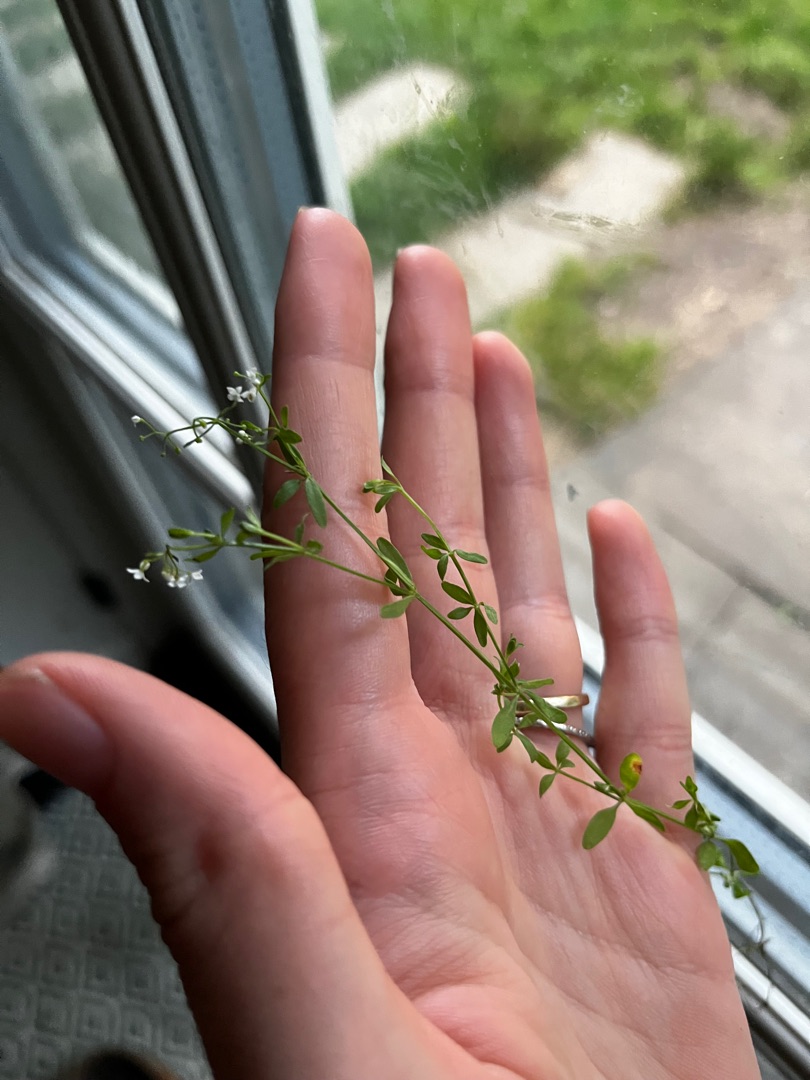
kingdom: Plantae
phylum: Tracheophyta
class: Magnoliopsida
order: Gentianales
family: Rubiaceae
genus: Galium
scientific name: Galium palustre
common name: Kær-snerre
